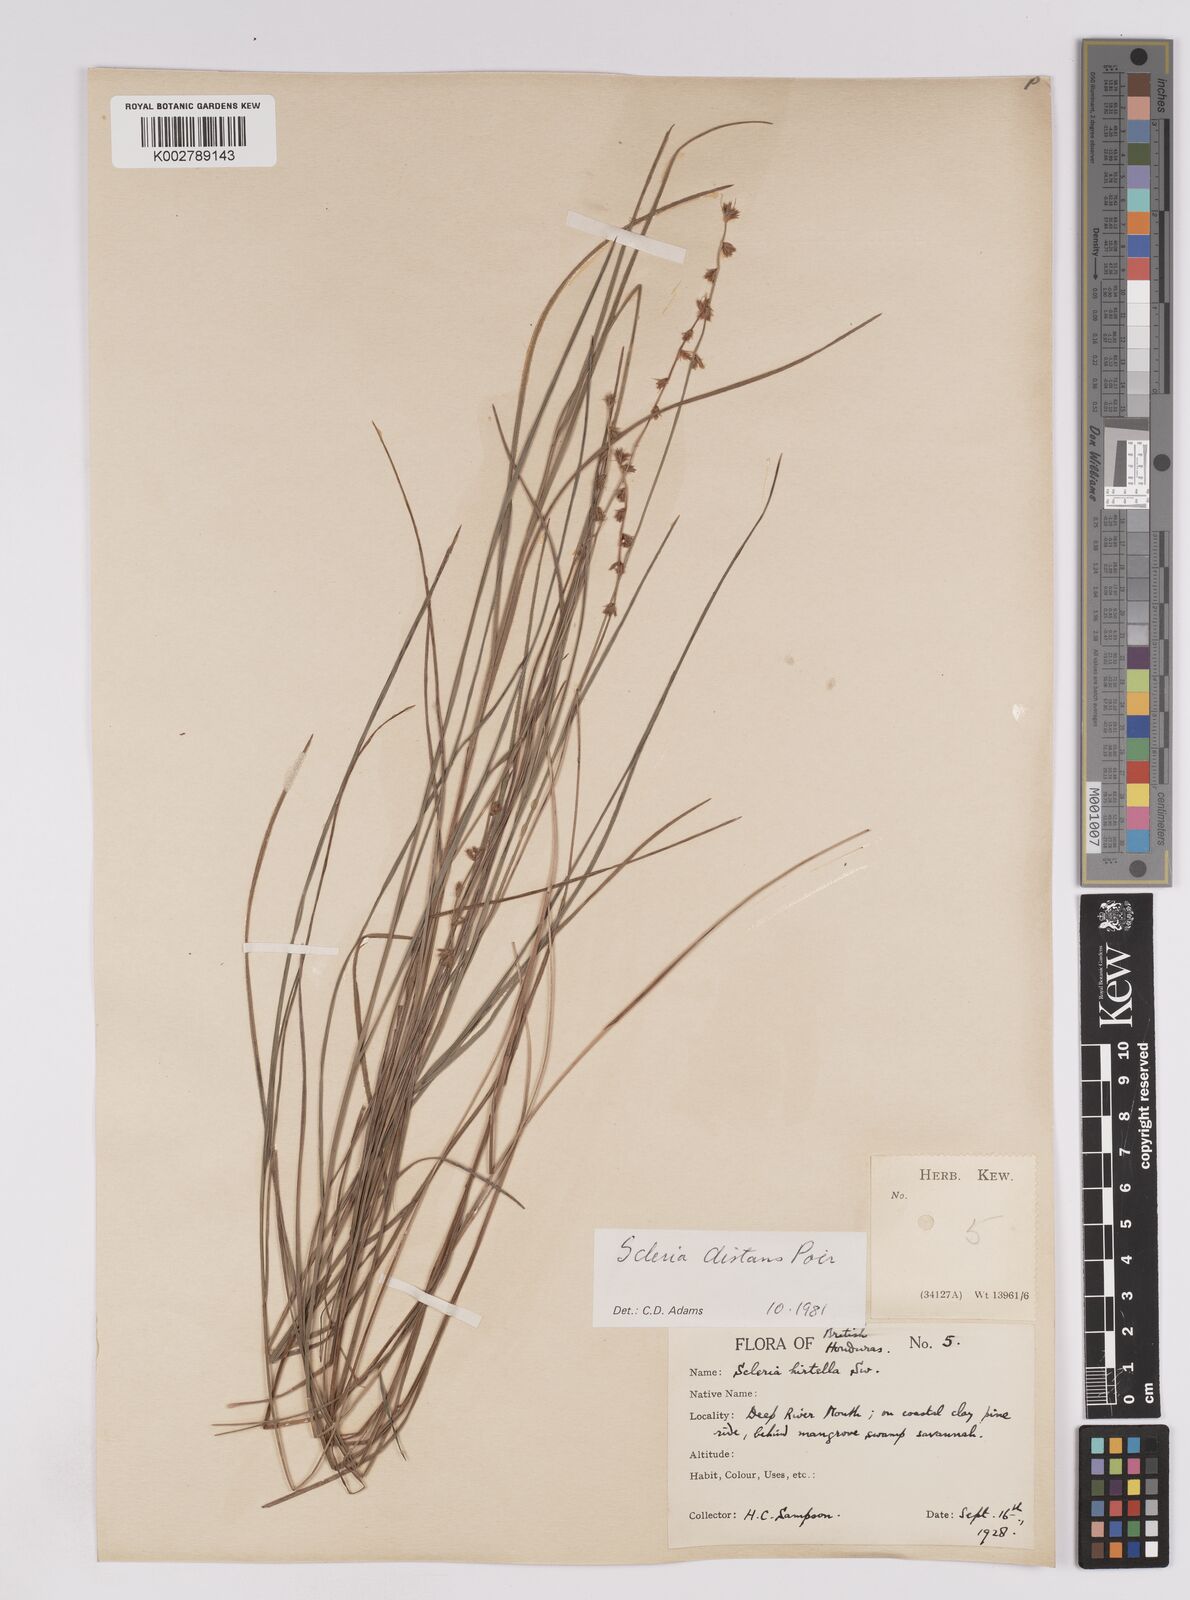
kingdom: Plantae
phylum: Tracheophyta
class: Liliopsida
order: Poales
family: Cyperaceae
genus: Scleria
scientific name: Scleria distans
